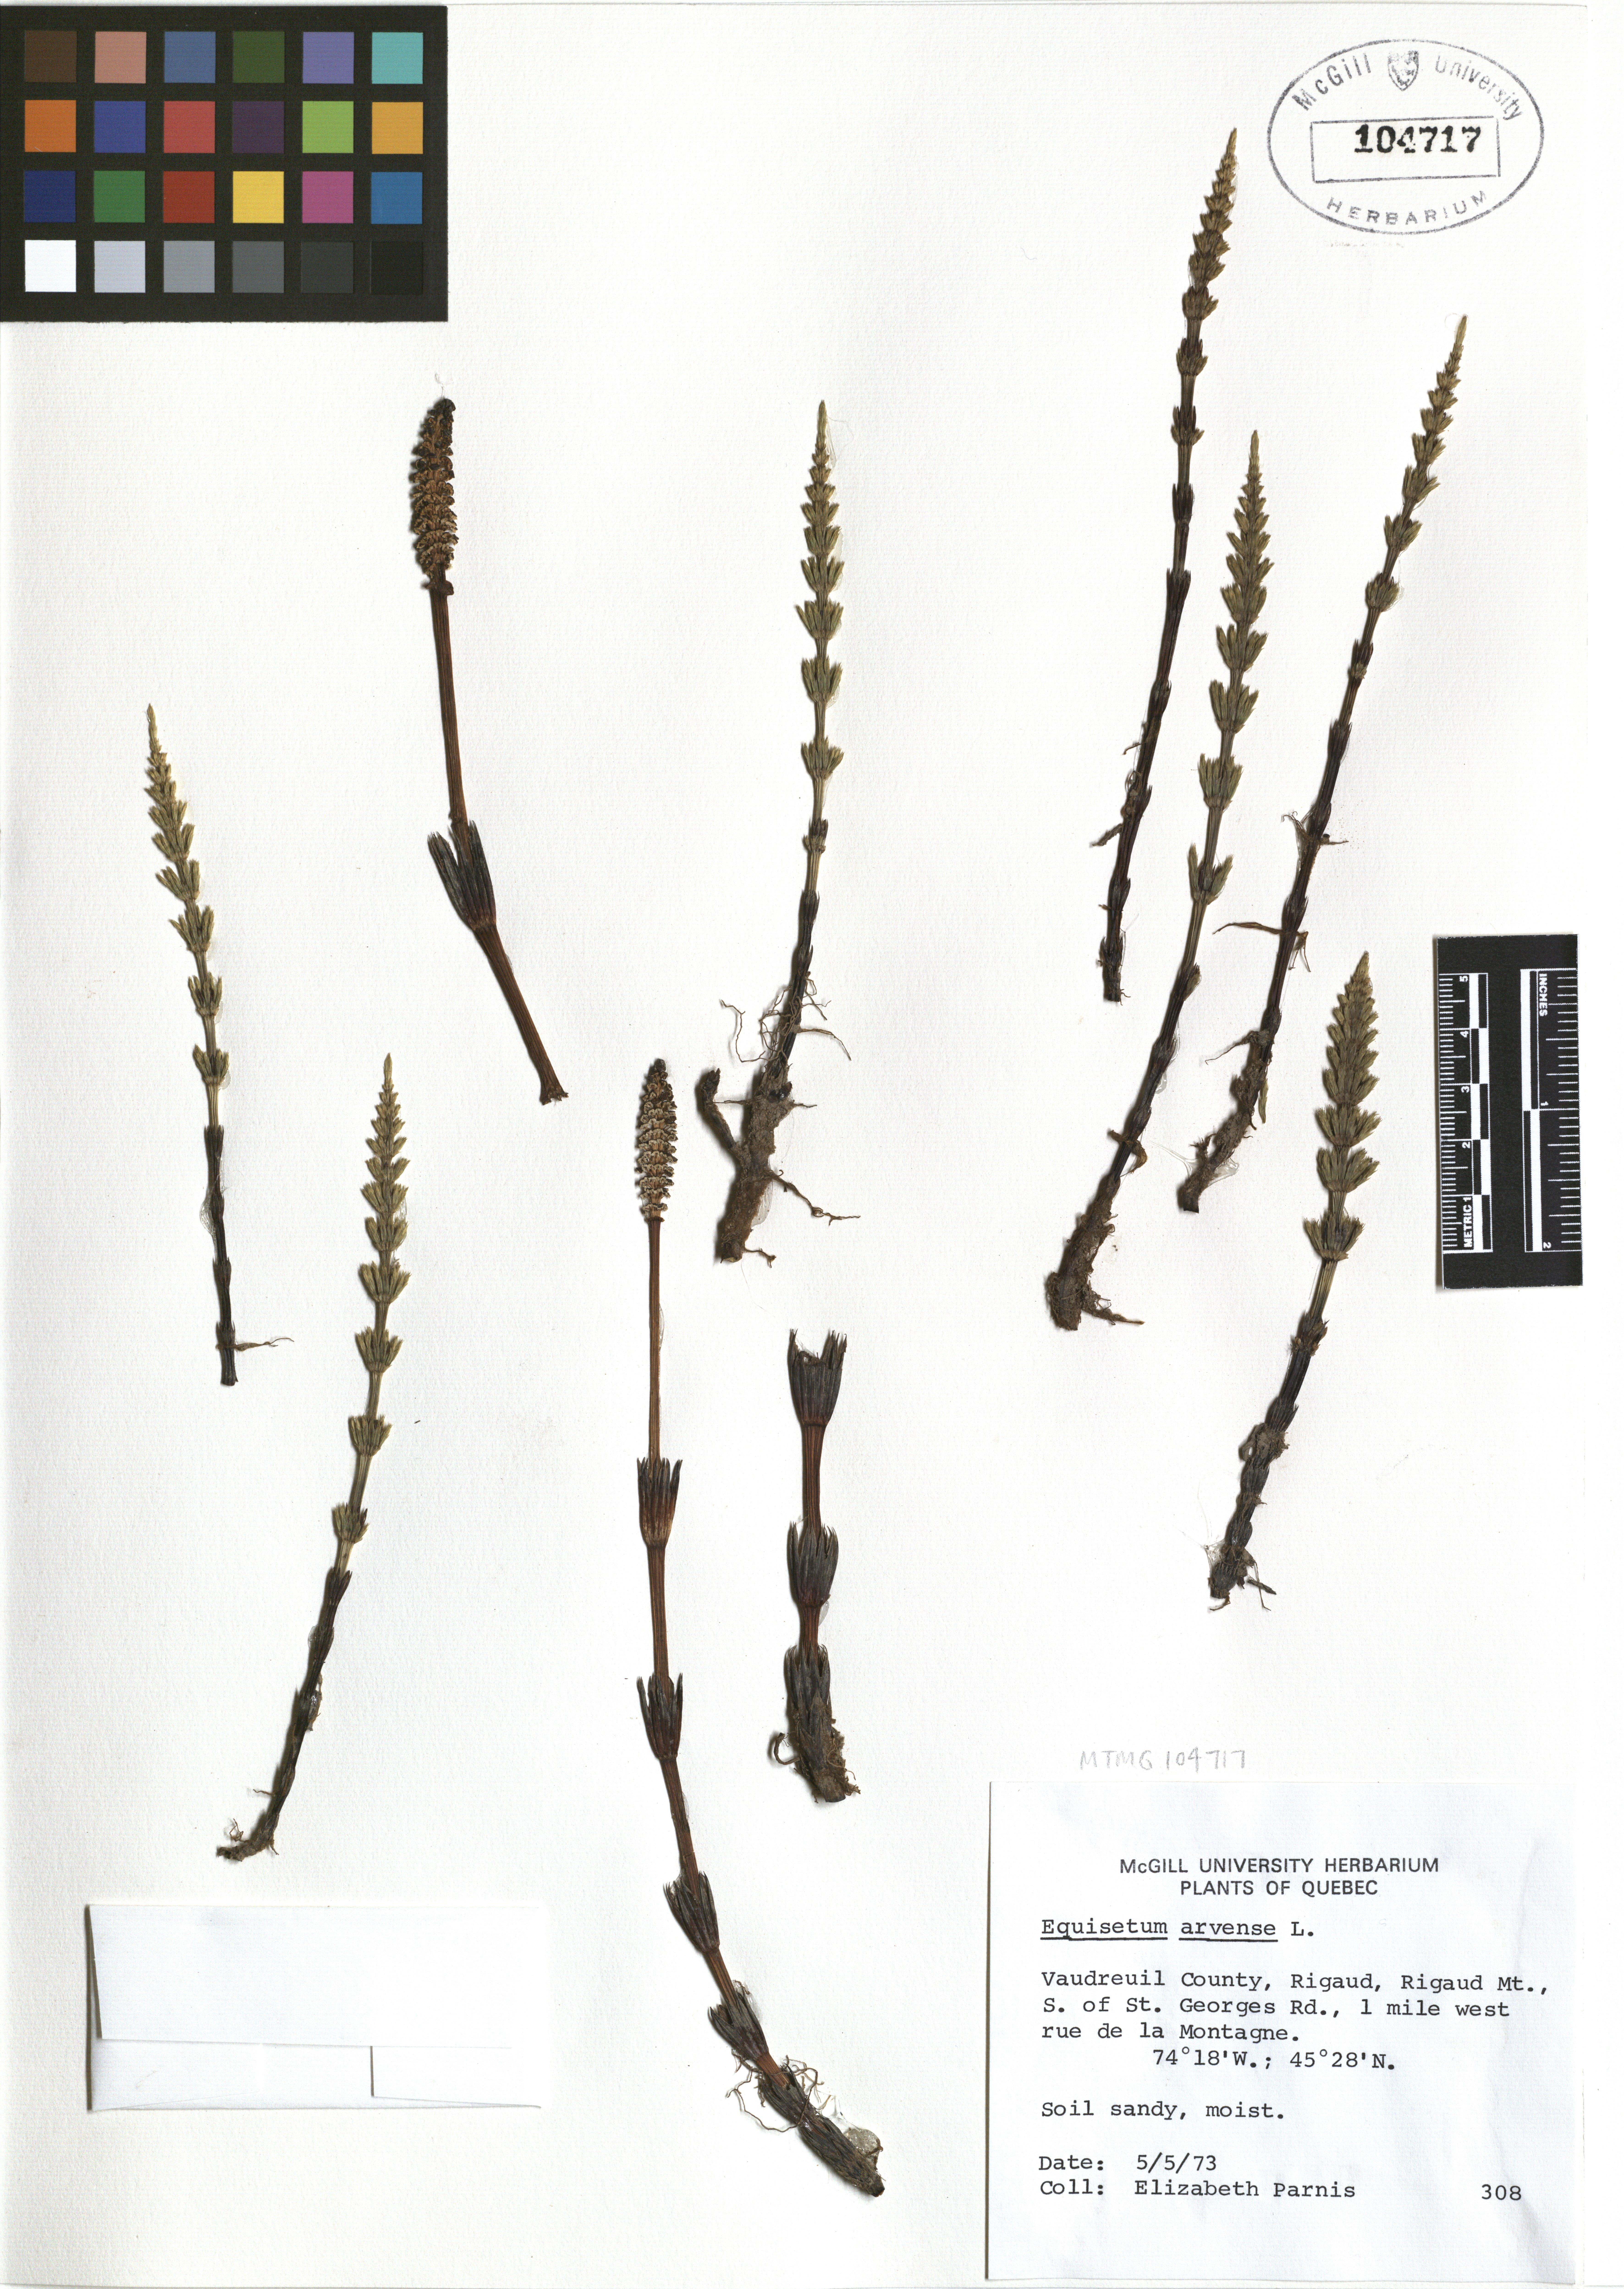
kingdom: Plantae
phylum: Tracheophyta
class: Polypodiopsida
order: Equisetales
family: Equisetaceae
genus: Equisetum
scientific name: Equisetum arvense
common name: Field horsetail
